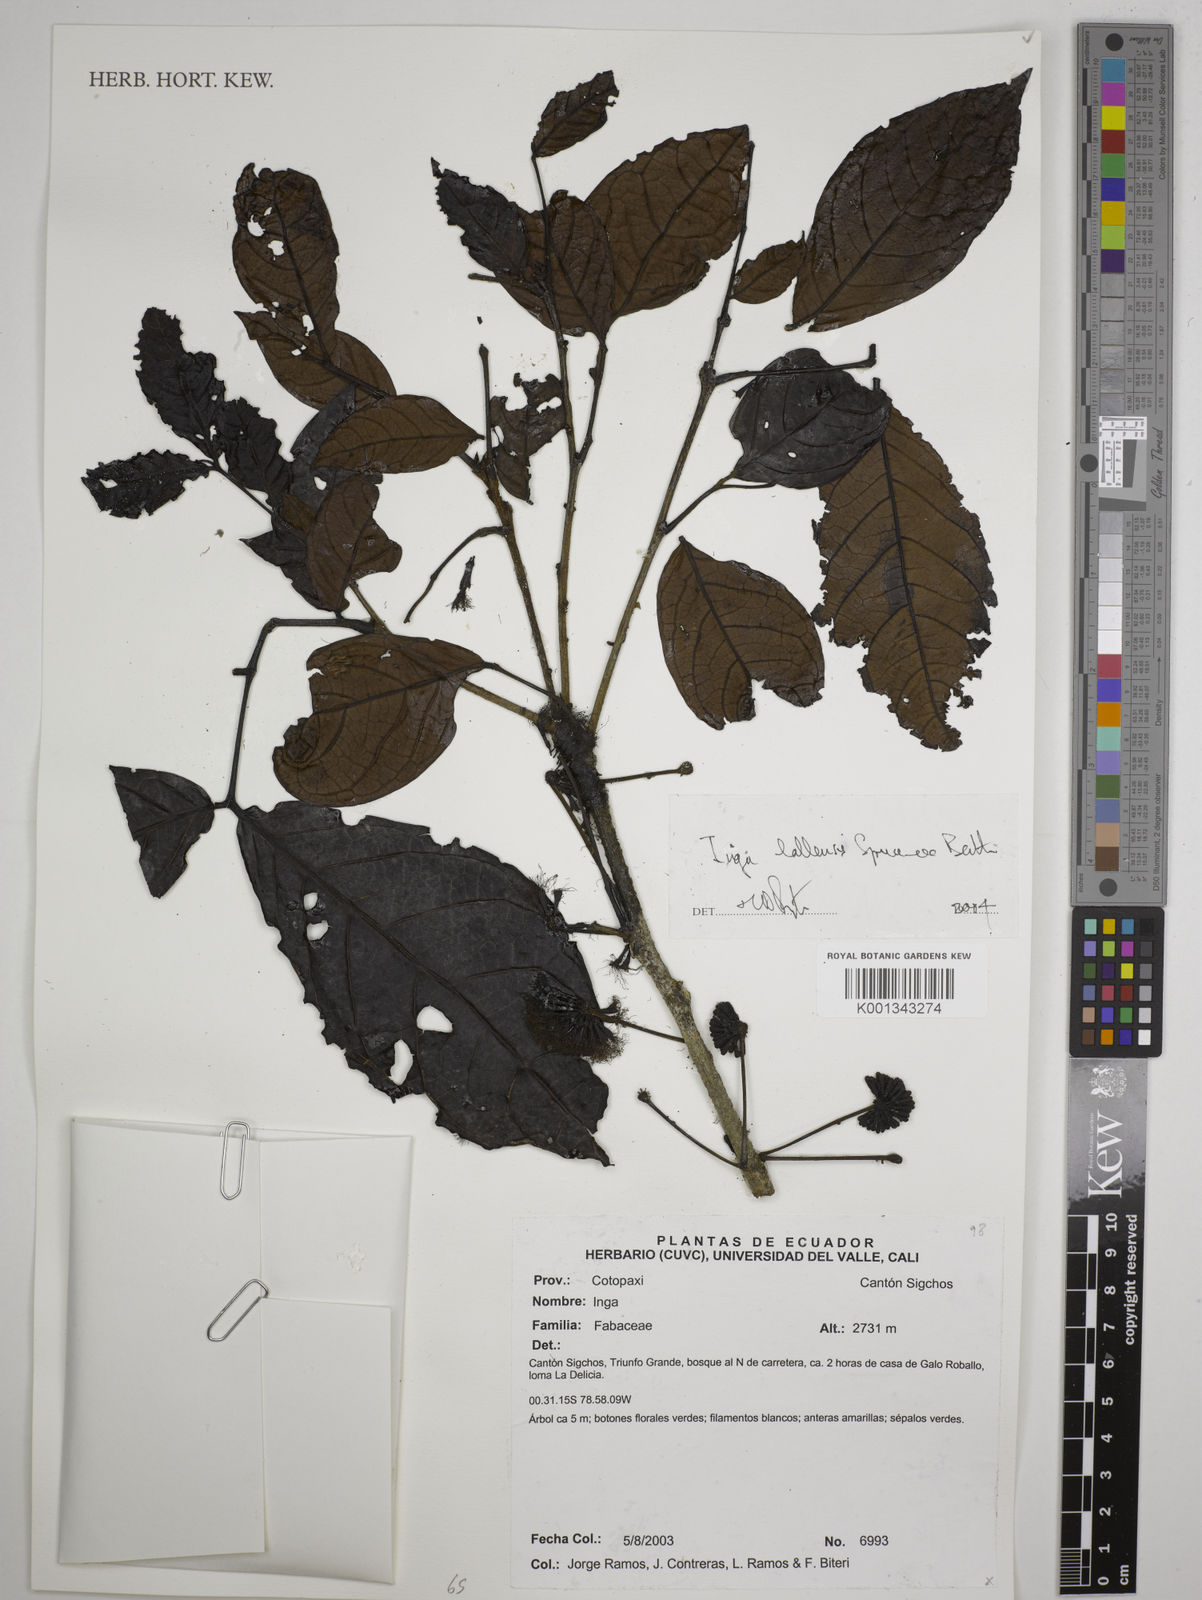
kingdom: Plantae
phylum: Tracheophyta
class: Magnoliopsida
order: Fabales
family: Fabaceae
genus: Inga
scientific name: Inga lallensis
